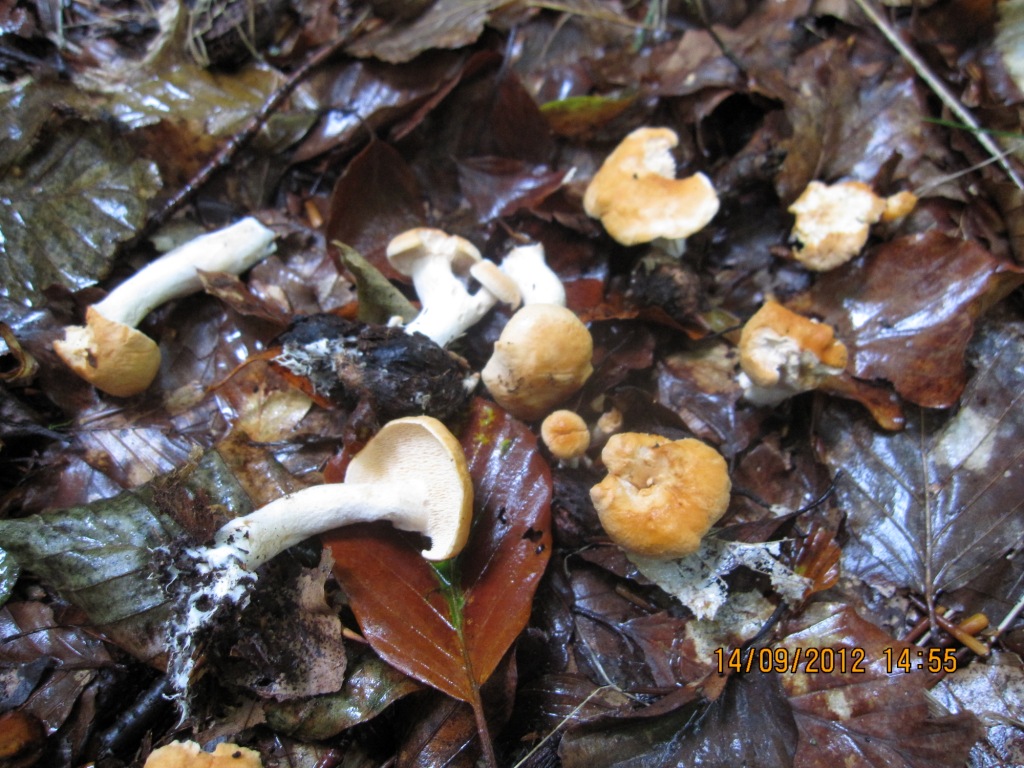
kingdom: Fungi
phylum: Basidiomycota
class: Agaricomycetes
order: Cantharellales
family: Hydnaceae
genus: Hydnum
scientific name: Hydnum rufescens
